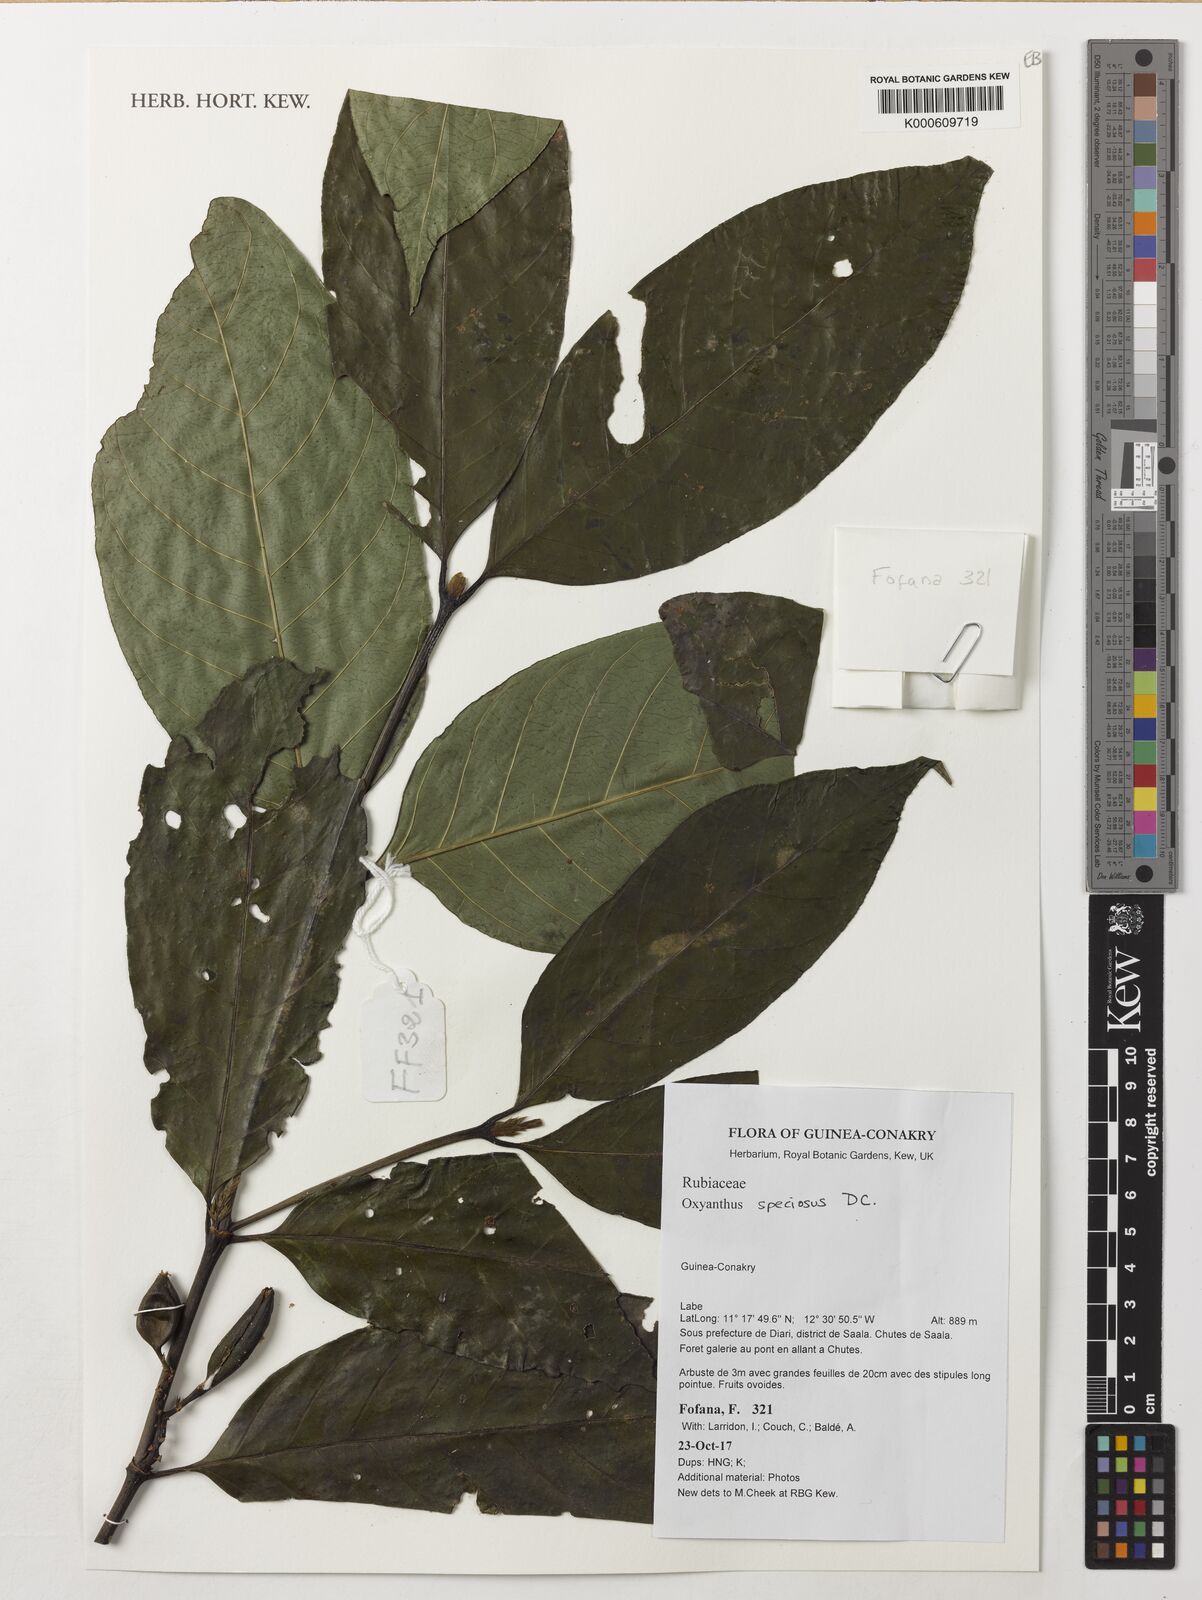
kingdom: Plantae
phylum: Tracheophyta
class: Magnoliopsida
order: Gentianales
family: Rubiaceae
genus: Oxyanthus
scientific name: Oxyanthus speciosus
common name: Whipstick loquat
